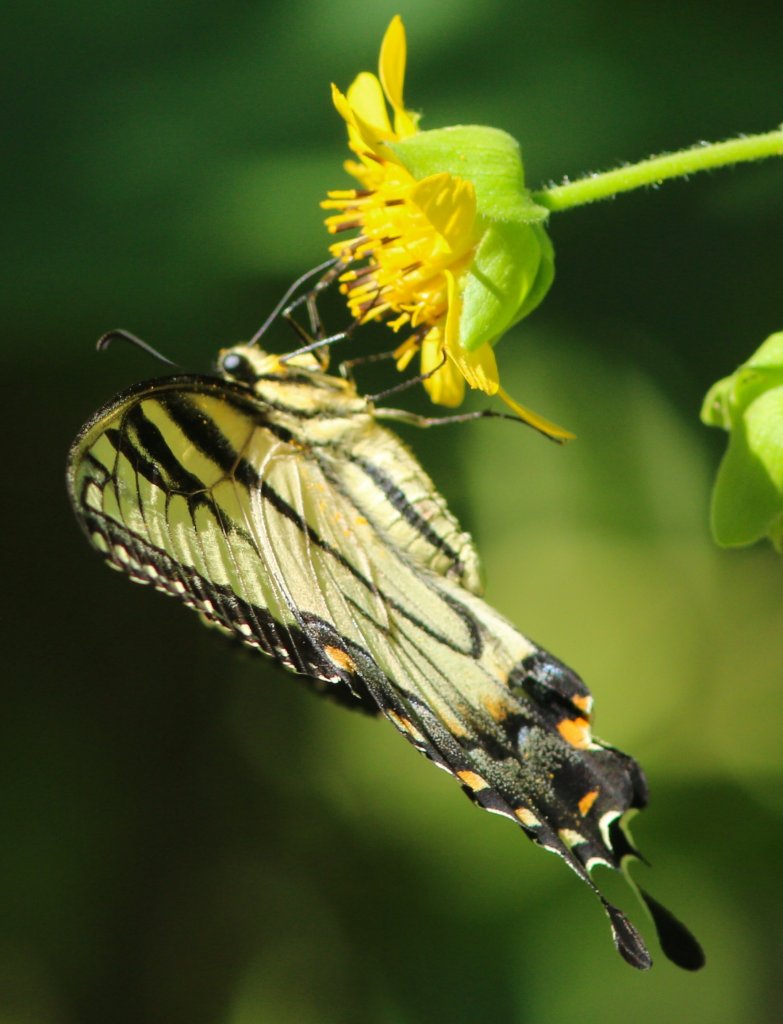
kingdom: Animalia
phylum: Arthropoda
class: Insecta
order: Lepidoptera
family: Papilionidae
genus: Pterourus
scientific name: Pterourus glaucus
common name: Eastern Tiger Swallowtail
